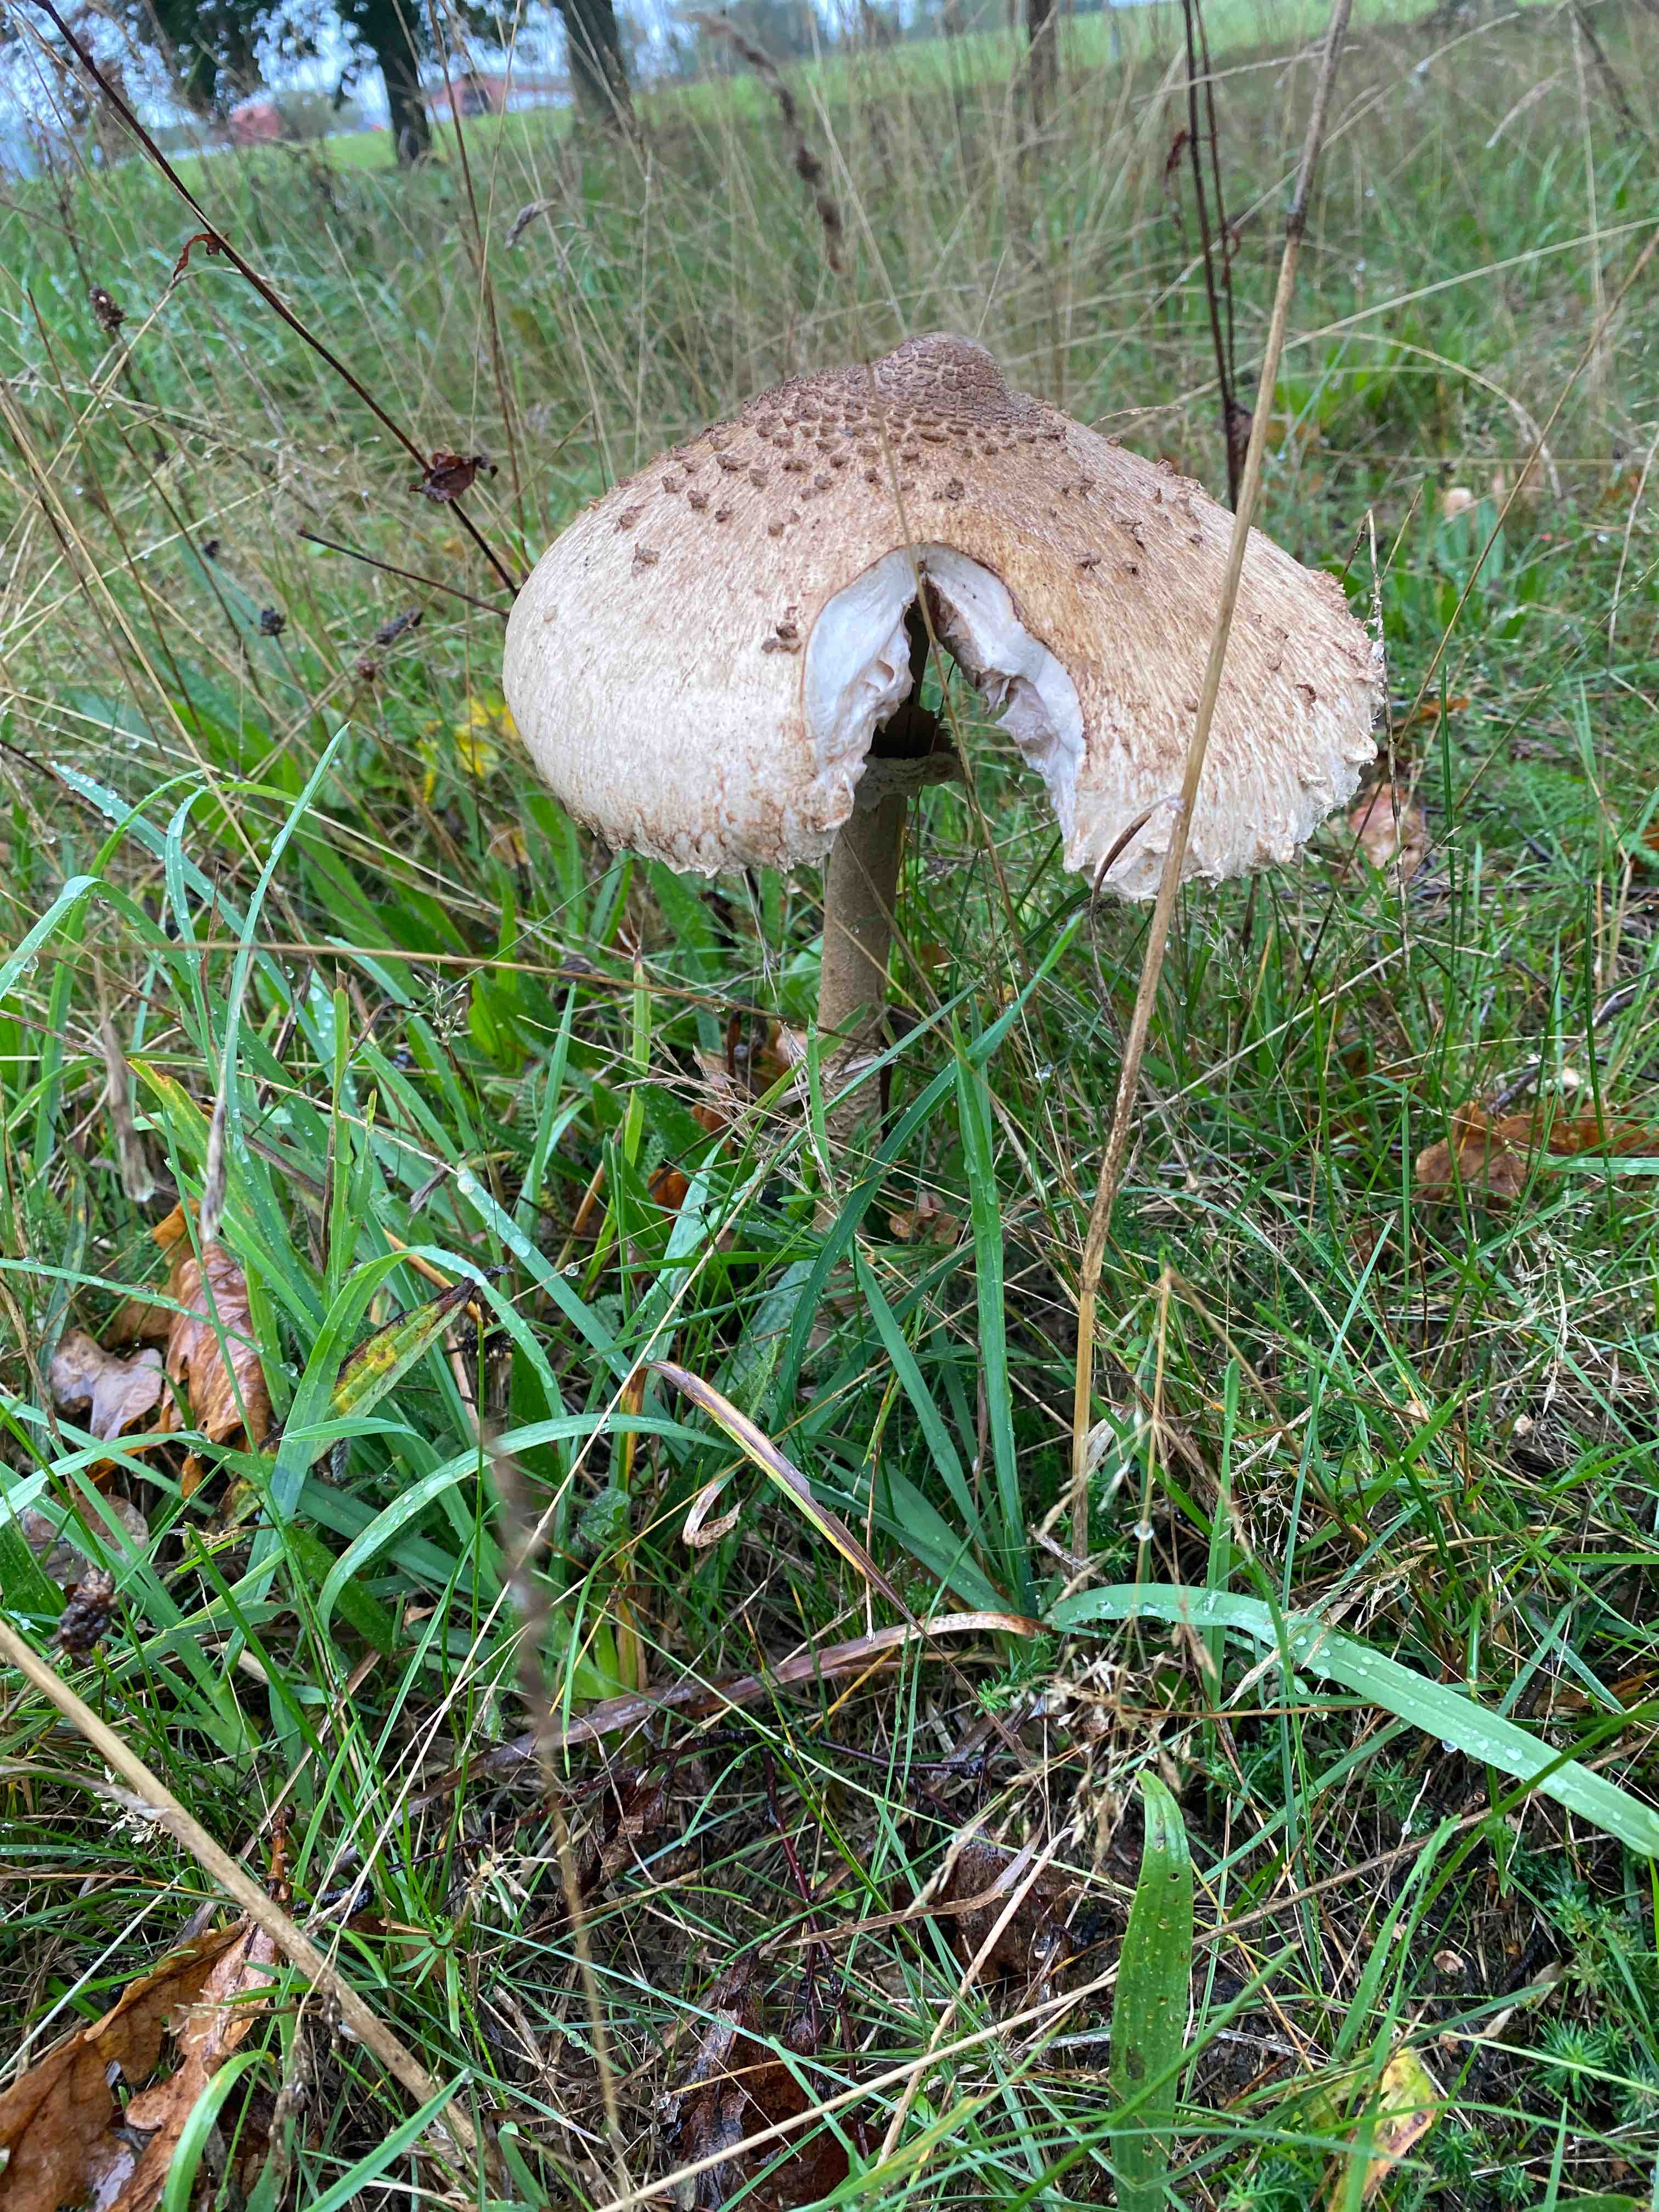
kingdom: Fungi
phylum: Basidiomycota
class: Agaricomycetes
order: Agaricales
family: Agaricaceae
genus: Macrolepiota
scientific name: Macrolepiota procera
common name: stor kæmpeparasolhat
